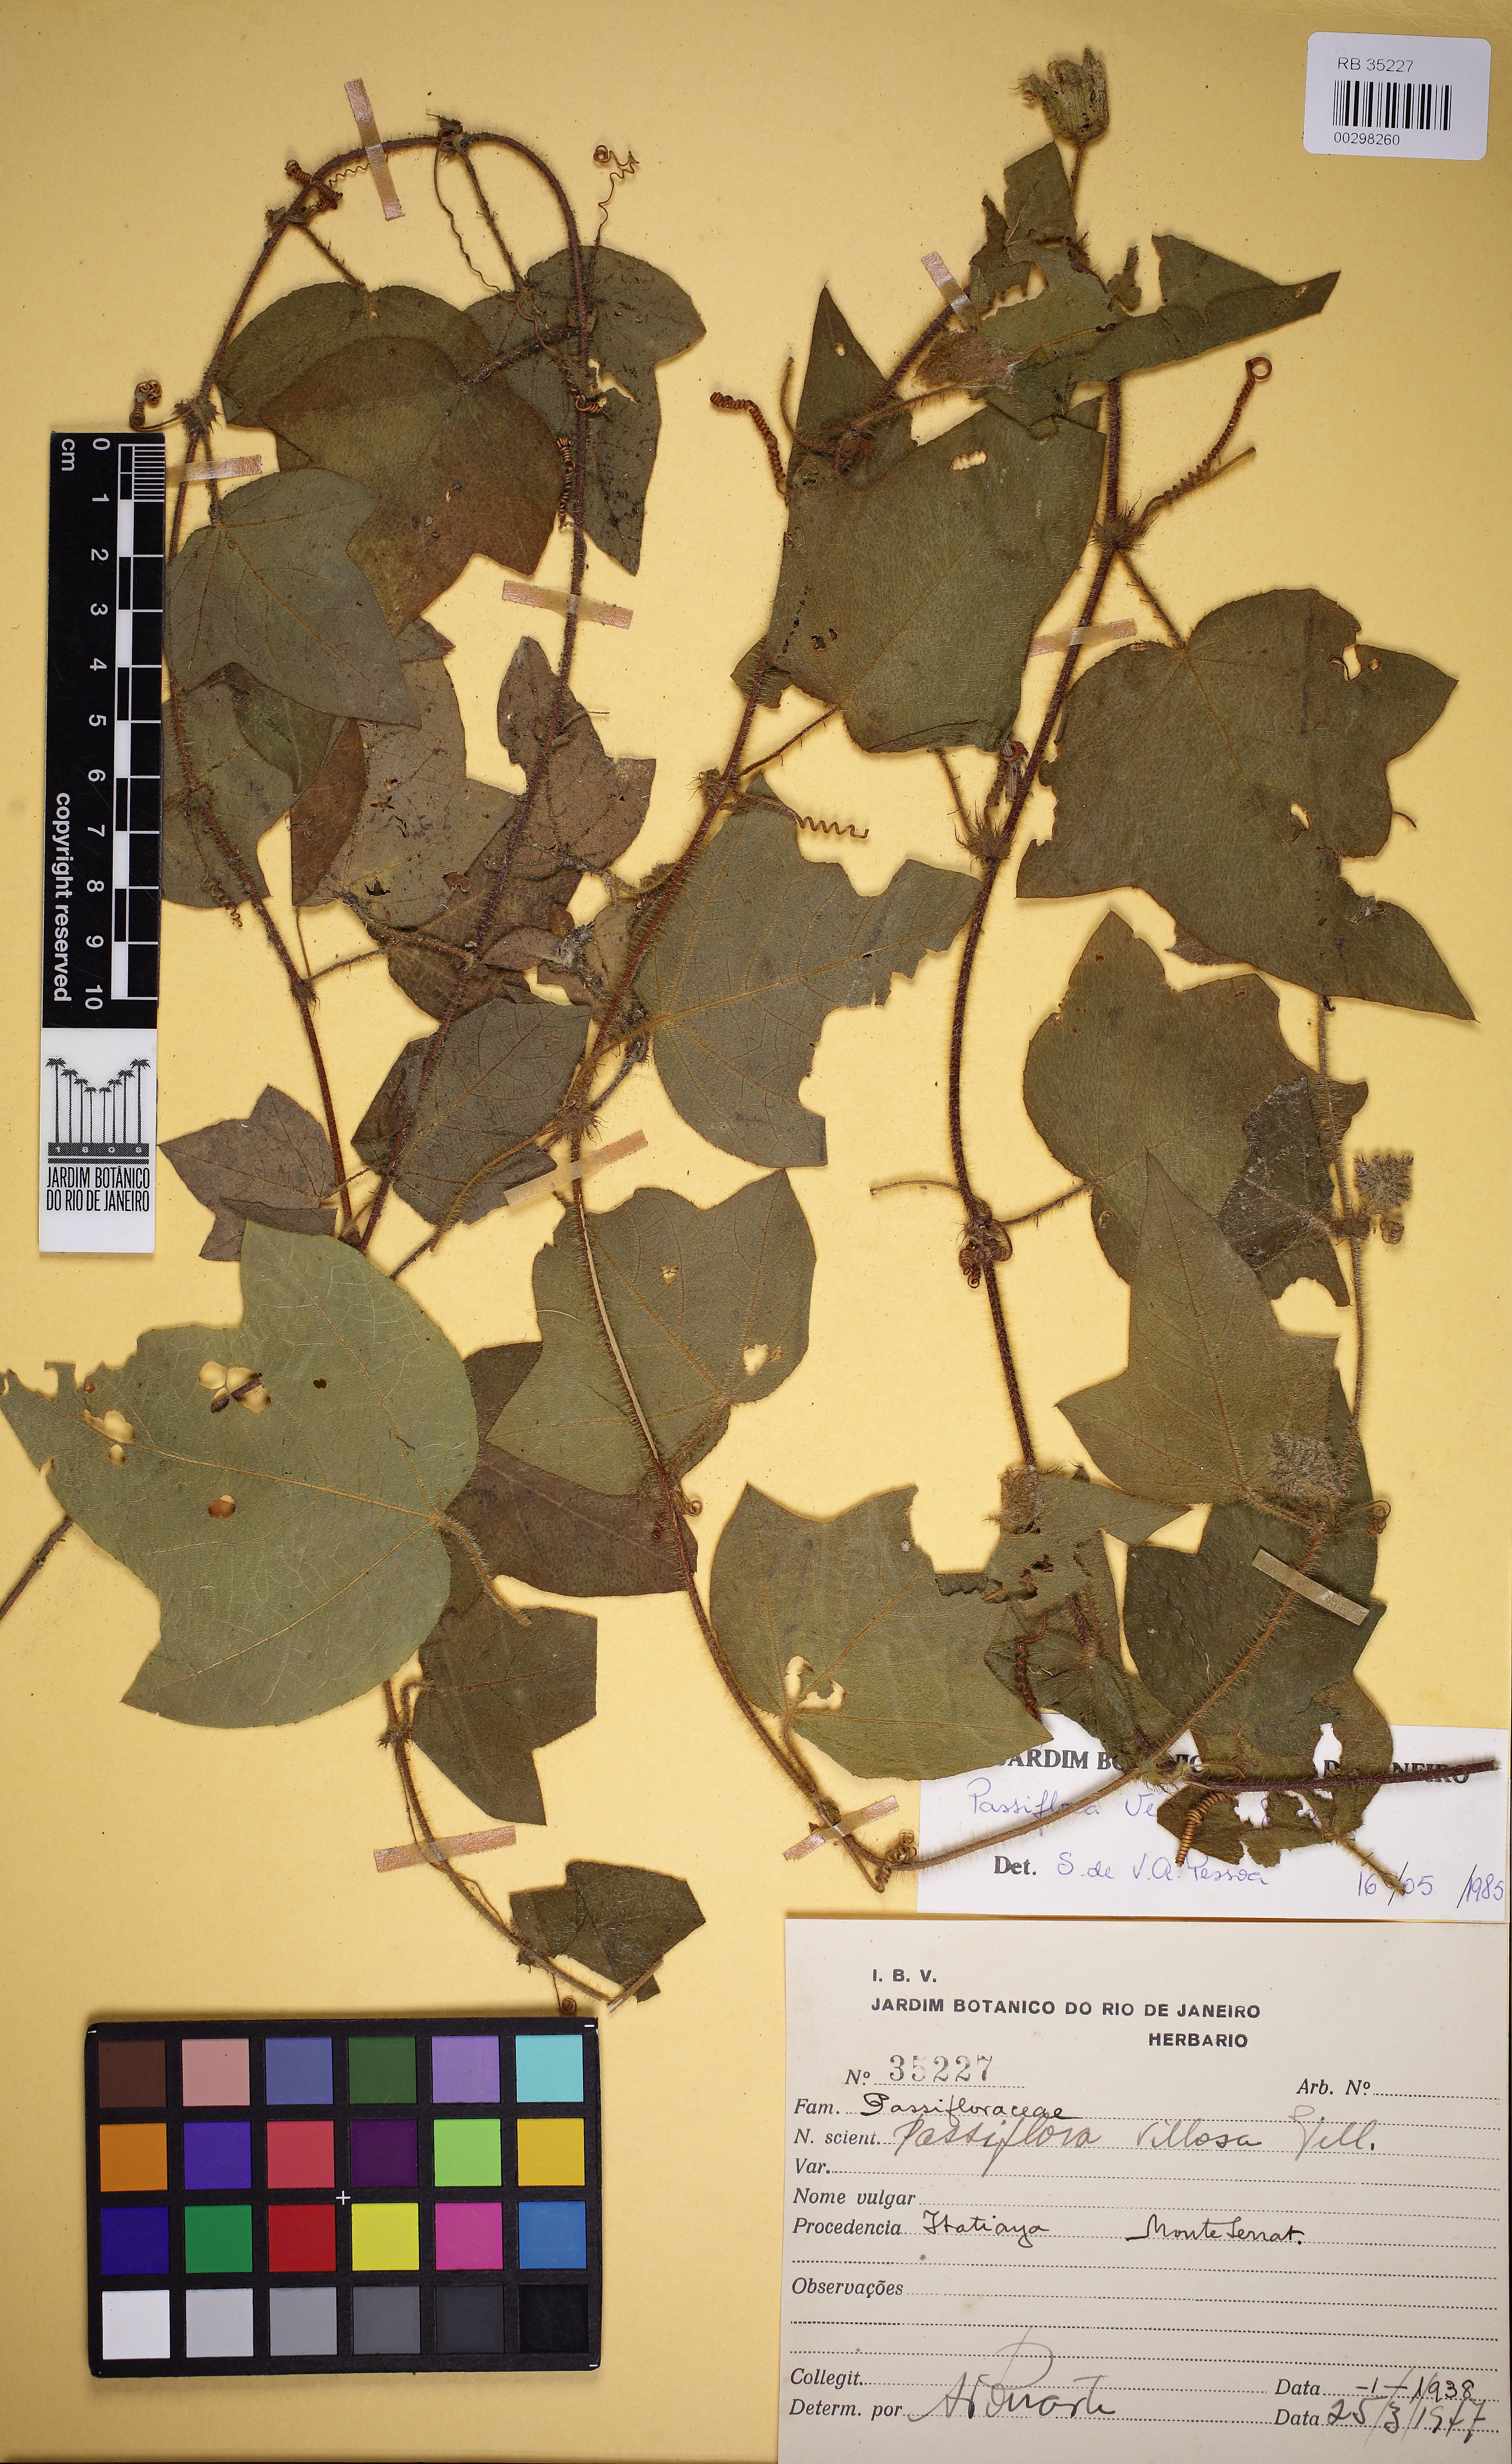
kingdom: Plantae
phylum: Tracheophyta
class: Magnoliopsida
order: Malpighiales
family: Passifloraceae
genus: Passiflora
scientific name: Passiflora vellozii
